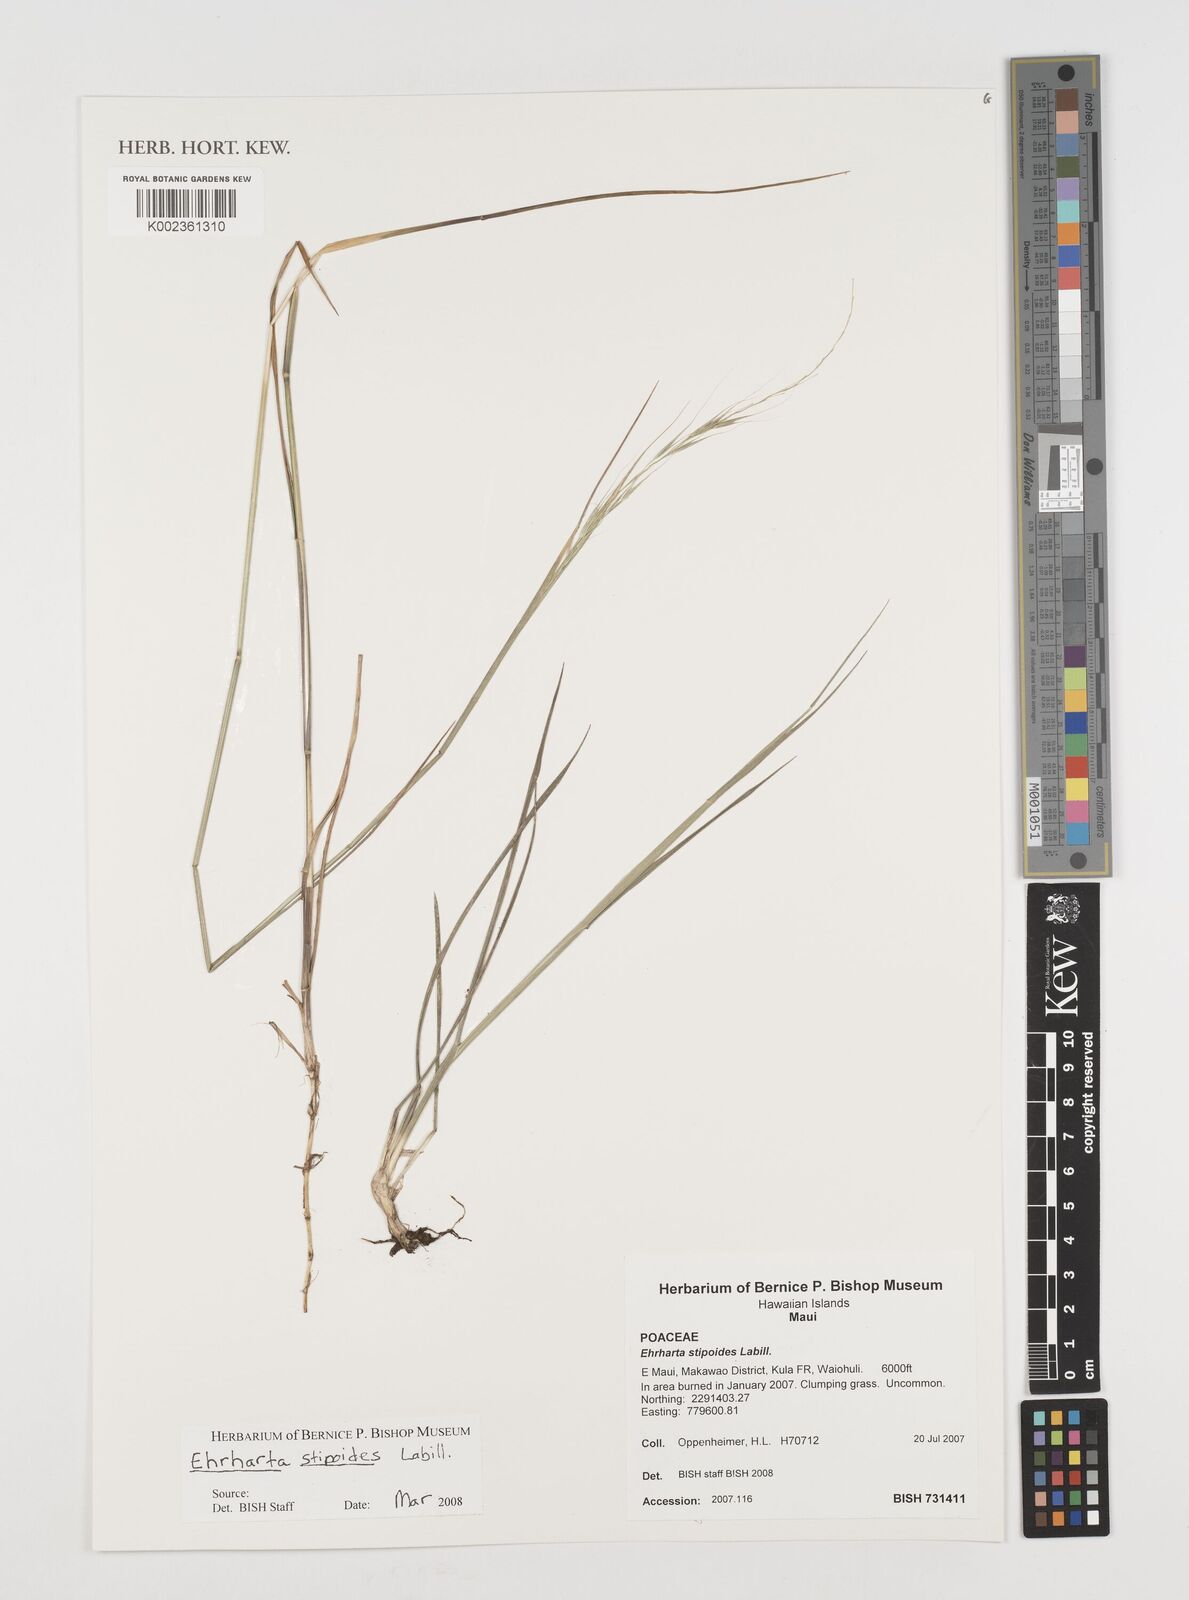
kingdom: Plantae
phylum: Tracheophyta
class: Liliopsida
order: Poales
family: Poaceae
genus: Microlaena
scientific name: Microlaena stipoides
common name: Meadow ricegrass
